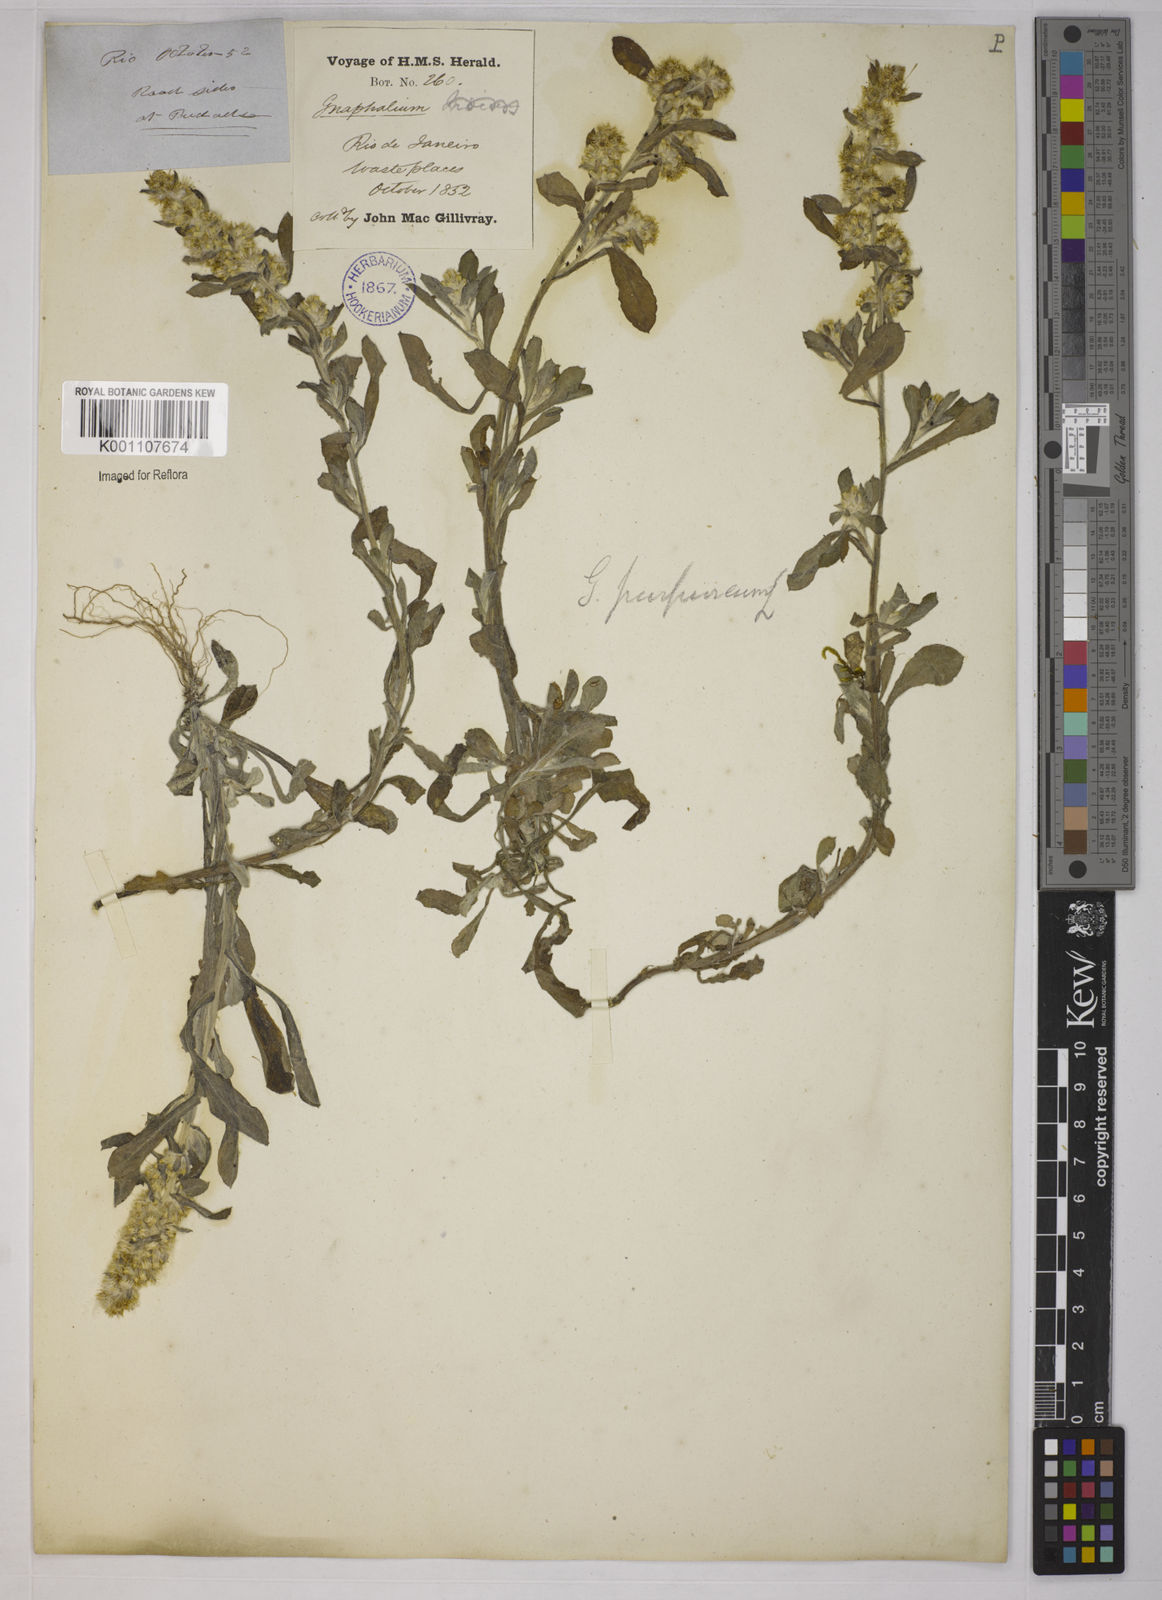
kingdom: Plantae
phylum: Tracheophyta
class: Magnoliopsida
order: Asterales
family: Asteraceae
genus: Gamochaeta
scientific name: Gamochaeta pensylvanica
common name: Pennsylvania everlasting
